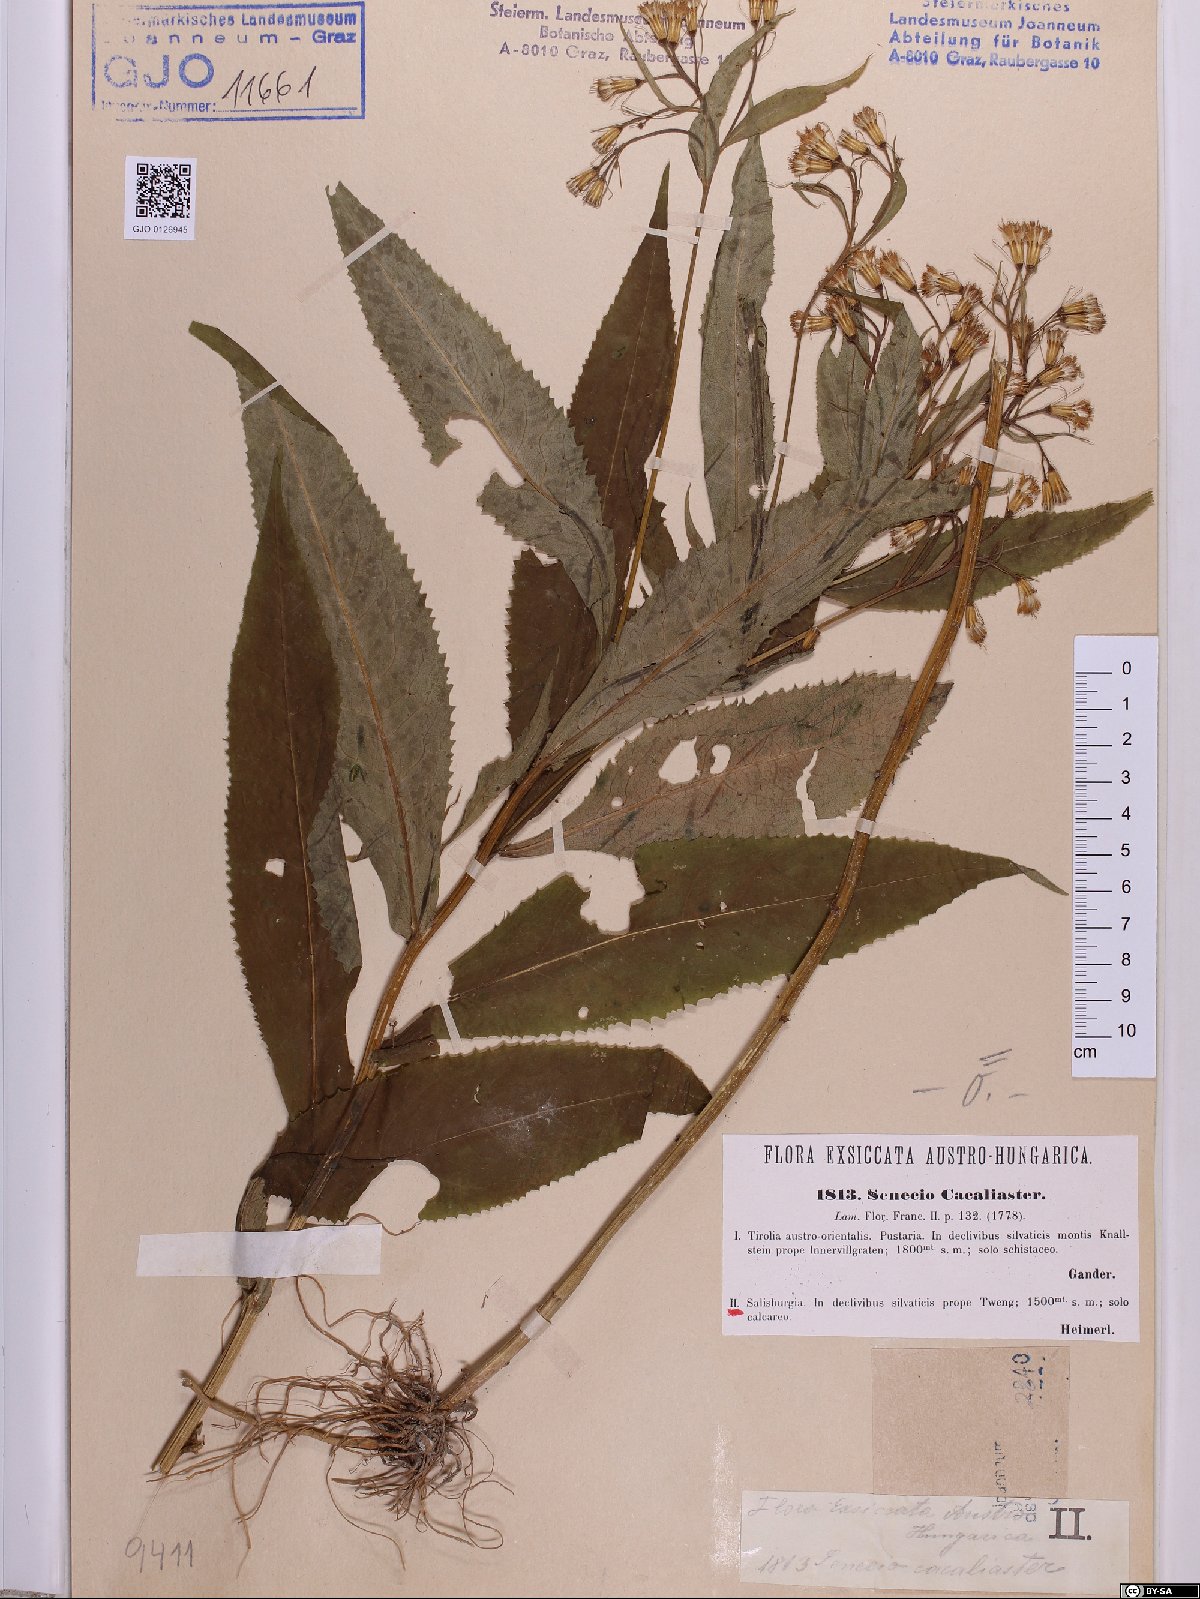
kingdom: Plantae
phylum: Tracheophyta
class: Magnoliopsida
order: Asterales
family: Asteraceae
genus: Senecio
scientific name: Senecio cacaliaster
